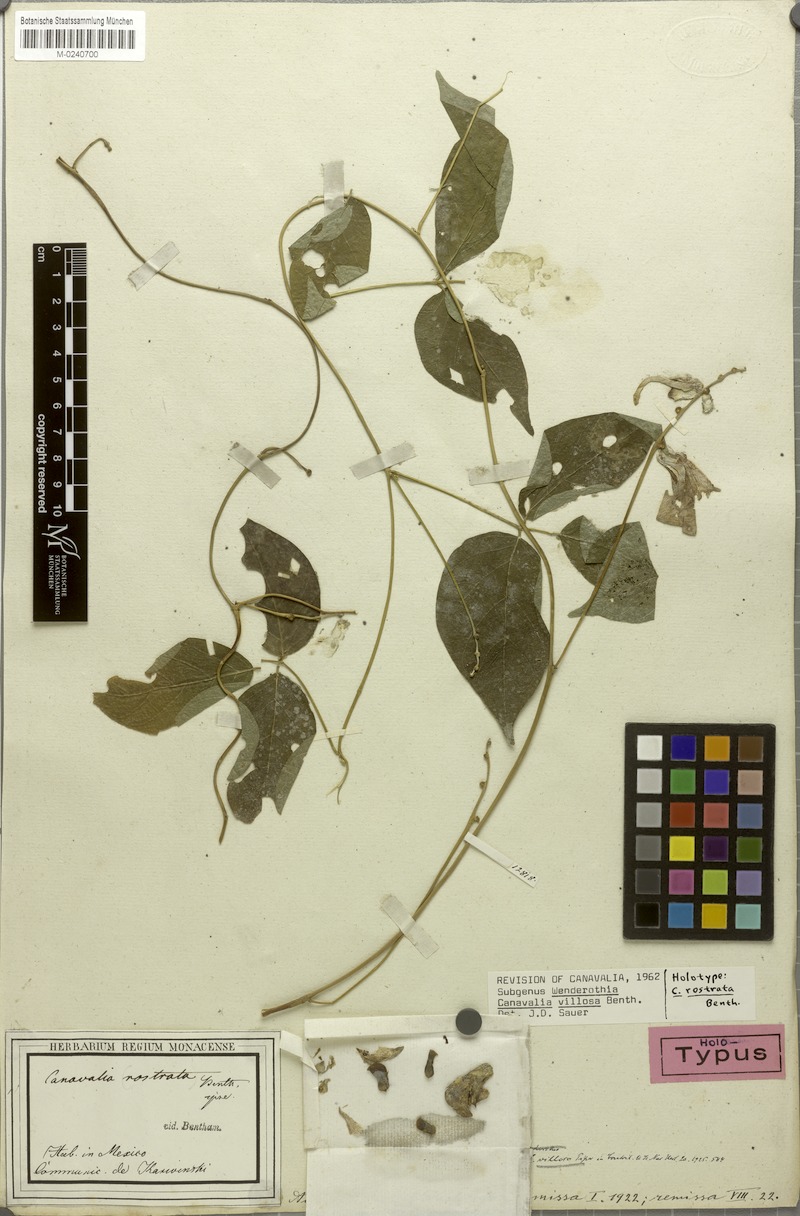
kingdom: Plantae
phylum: Tracheophyta
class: Magnoliopsida
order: Fabales
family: Fabaceae
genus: Canavalia
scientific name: Canavalia villosa
